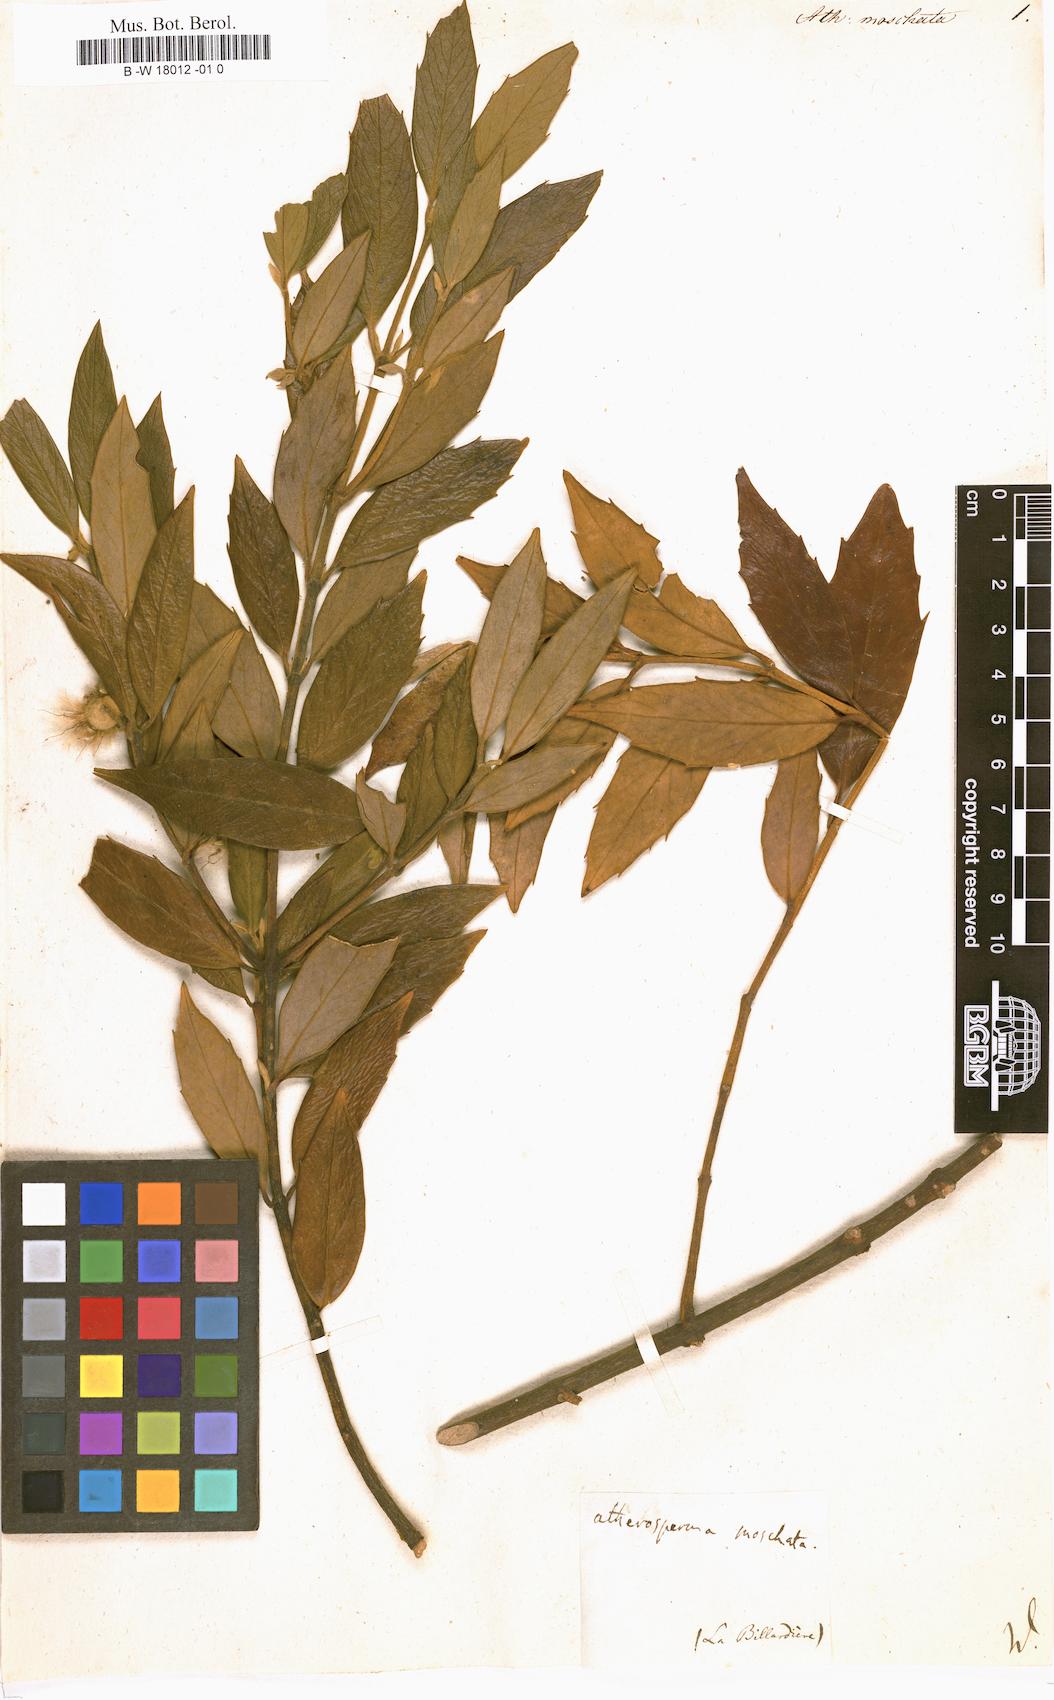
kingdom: Plantae
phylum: Tracheophyta
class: Magnoliopsida
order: Laurales
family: Atherospermataceae
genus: Atherosperma
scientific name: Atherosperma moschatum
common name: Tasmanian-sassafras
